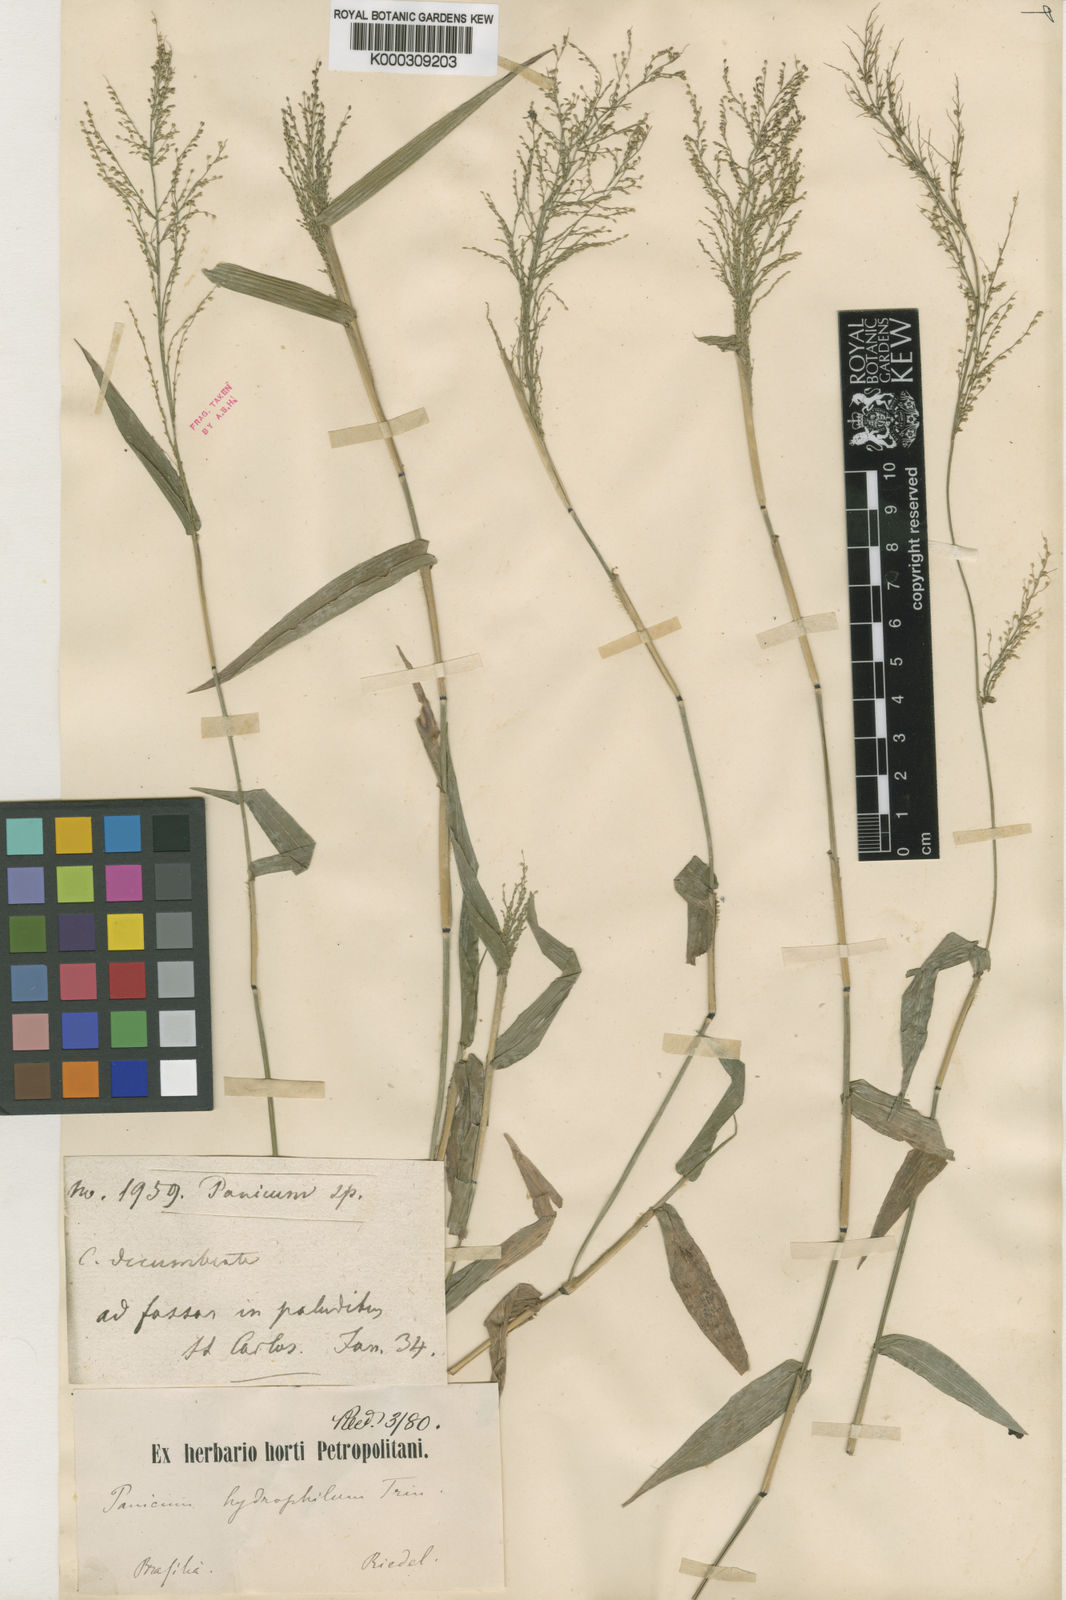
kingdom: Plantae
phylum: Tracheophyta
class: Liliopsida
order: Poales
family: Poaceae
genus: Rugoloa
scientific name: Rugoloa polygonata
